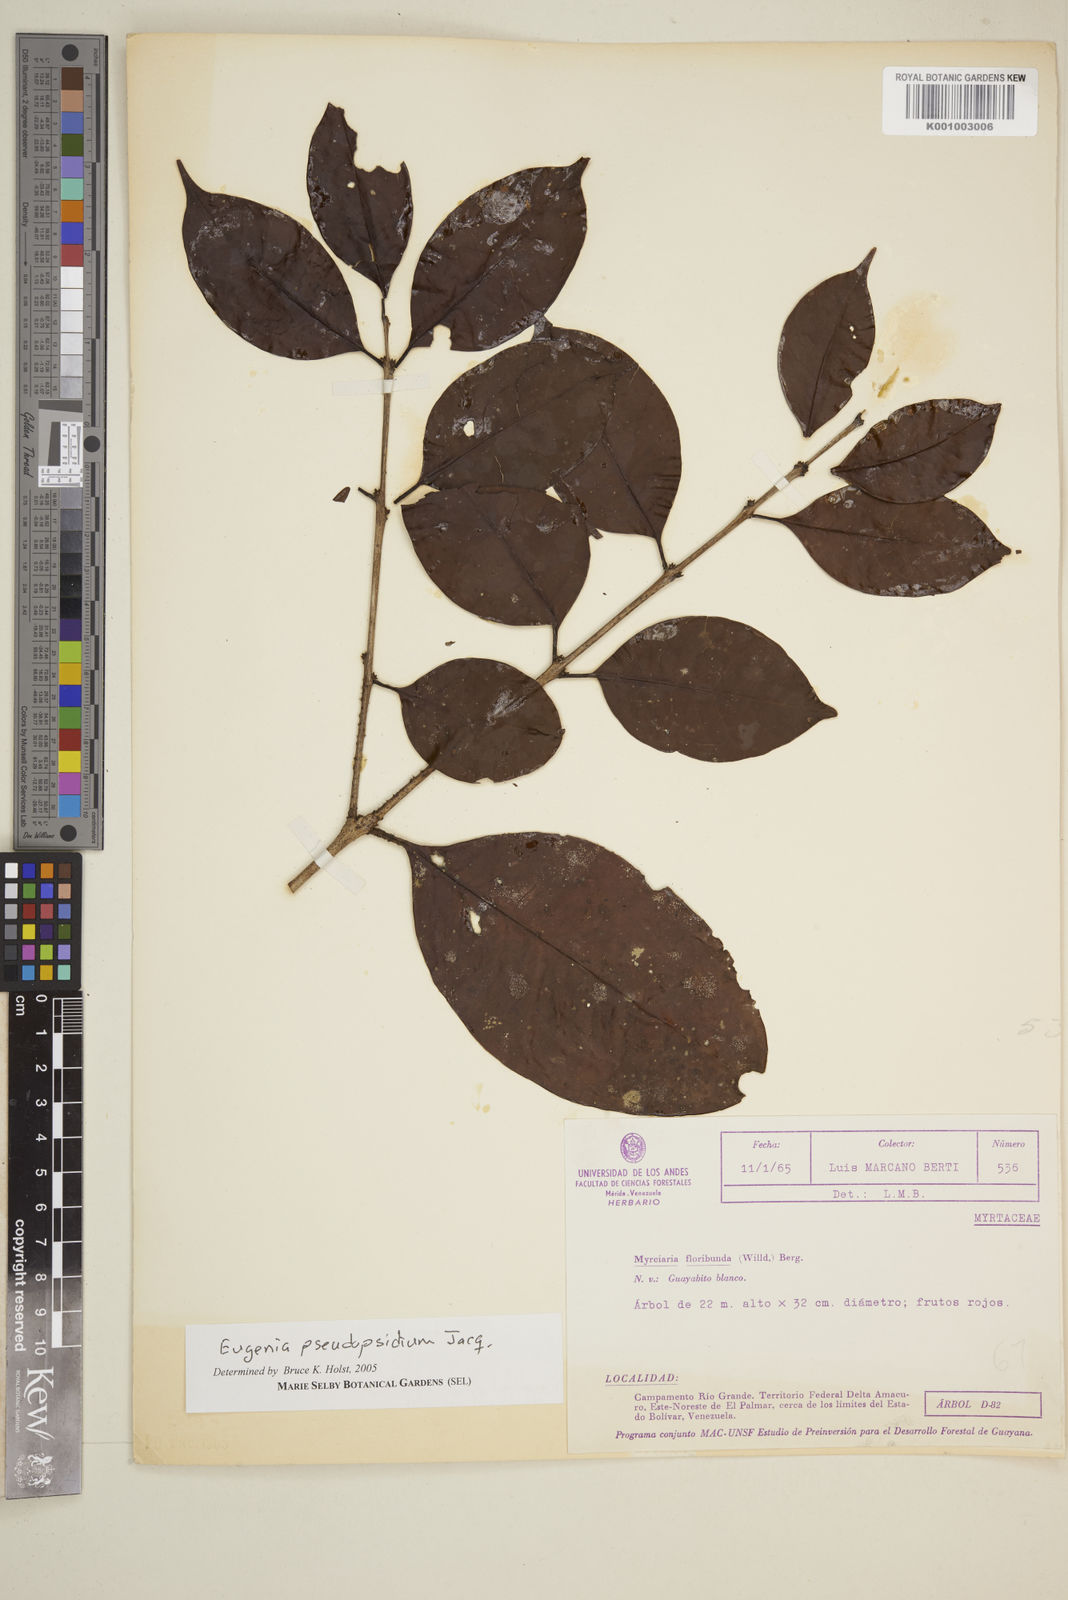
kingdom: Plantae
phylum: Tracheophyta
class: Magnoliopsida
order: Myrtales
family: Myrtaceae
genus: Eugenia
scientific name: Eugenia pseudopsidium
